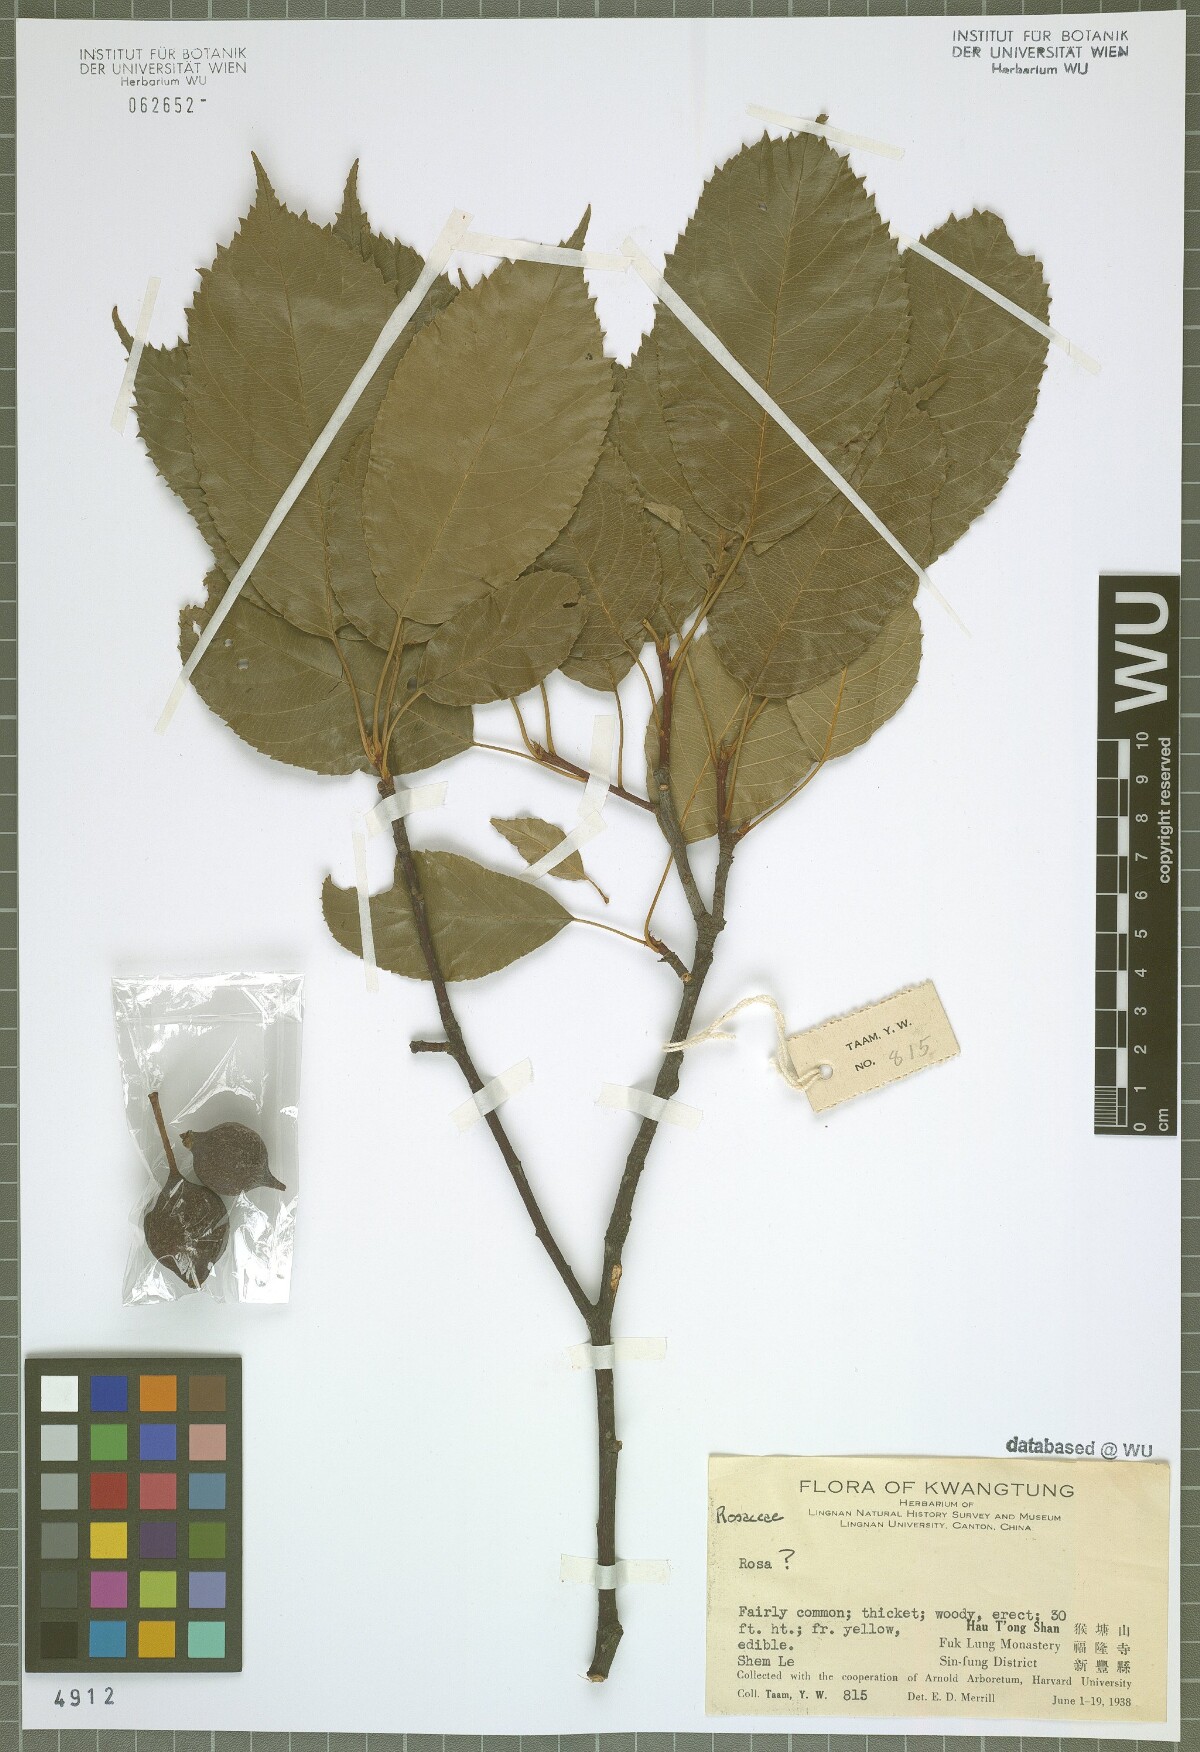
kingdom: Plantae
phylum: Tracheophyta
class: Magnoliopsida
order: Rosales
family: Rosaceae
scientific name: Rosaceae
